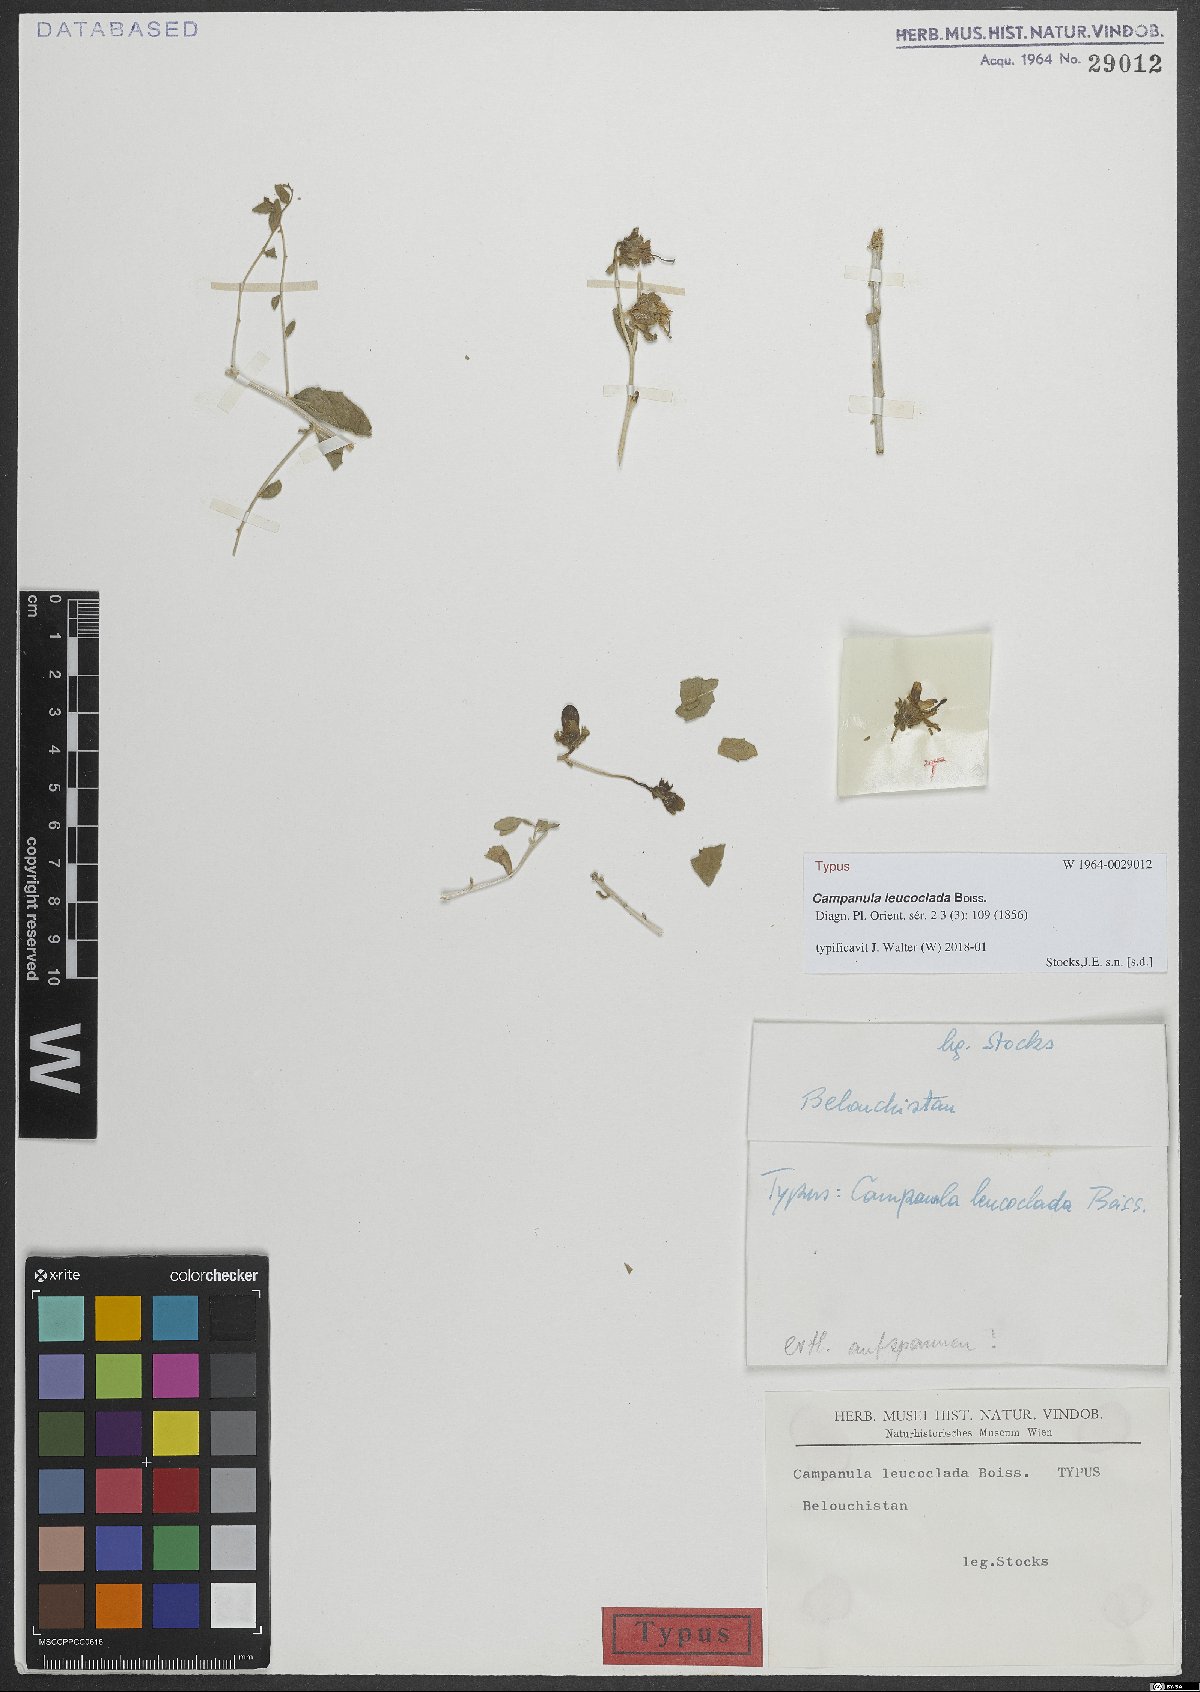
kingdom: Plantae
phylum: Tracheophyta
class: Magnoliopsida
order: Asterales
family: Campanulaceae
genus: Campanula
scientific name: Campanula leucoclada
